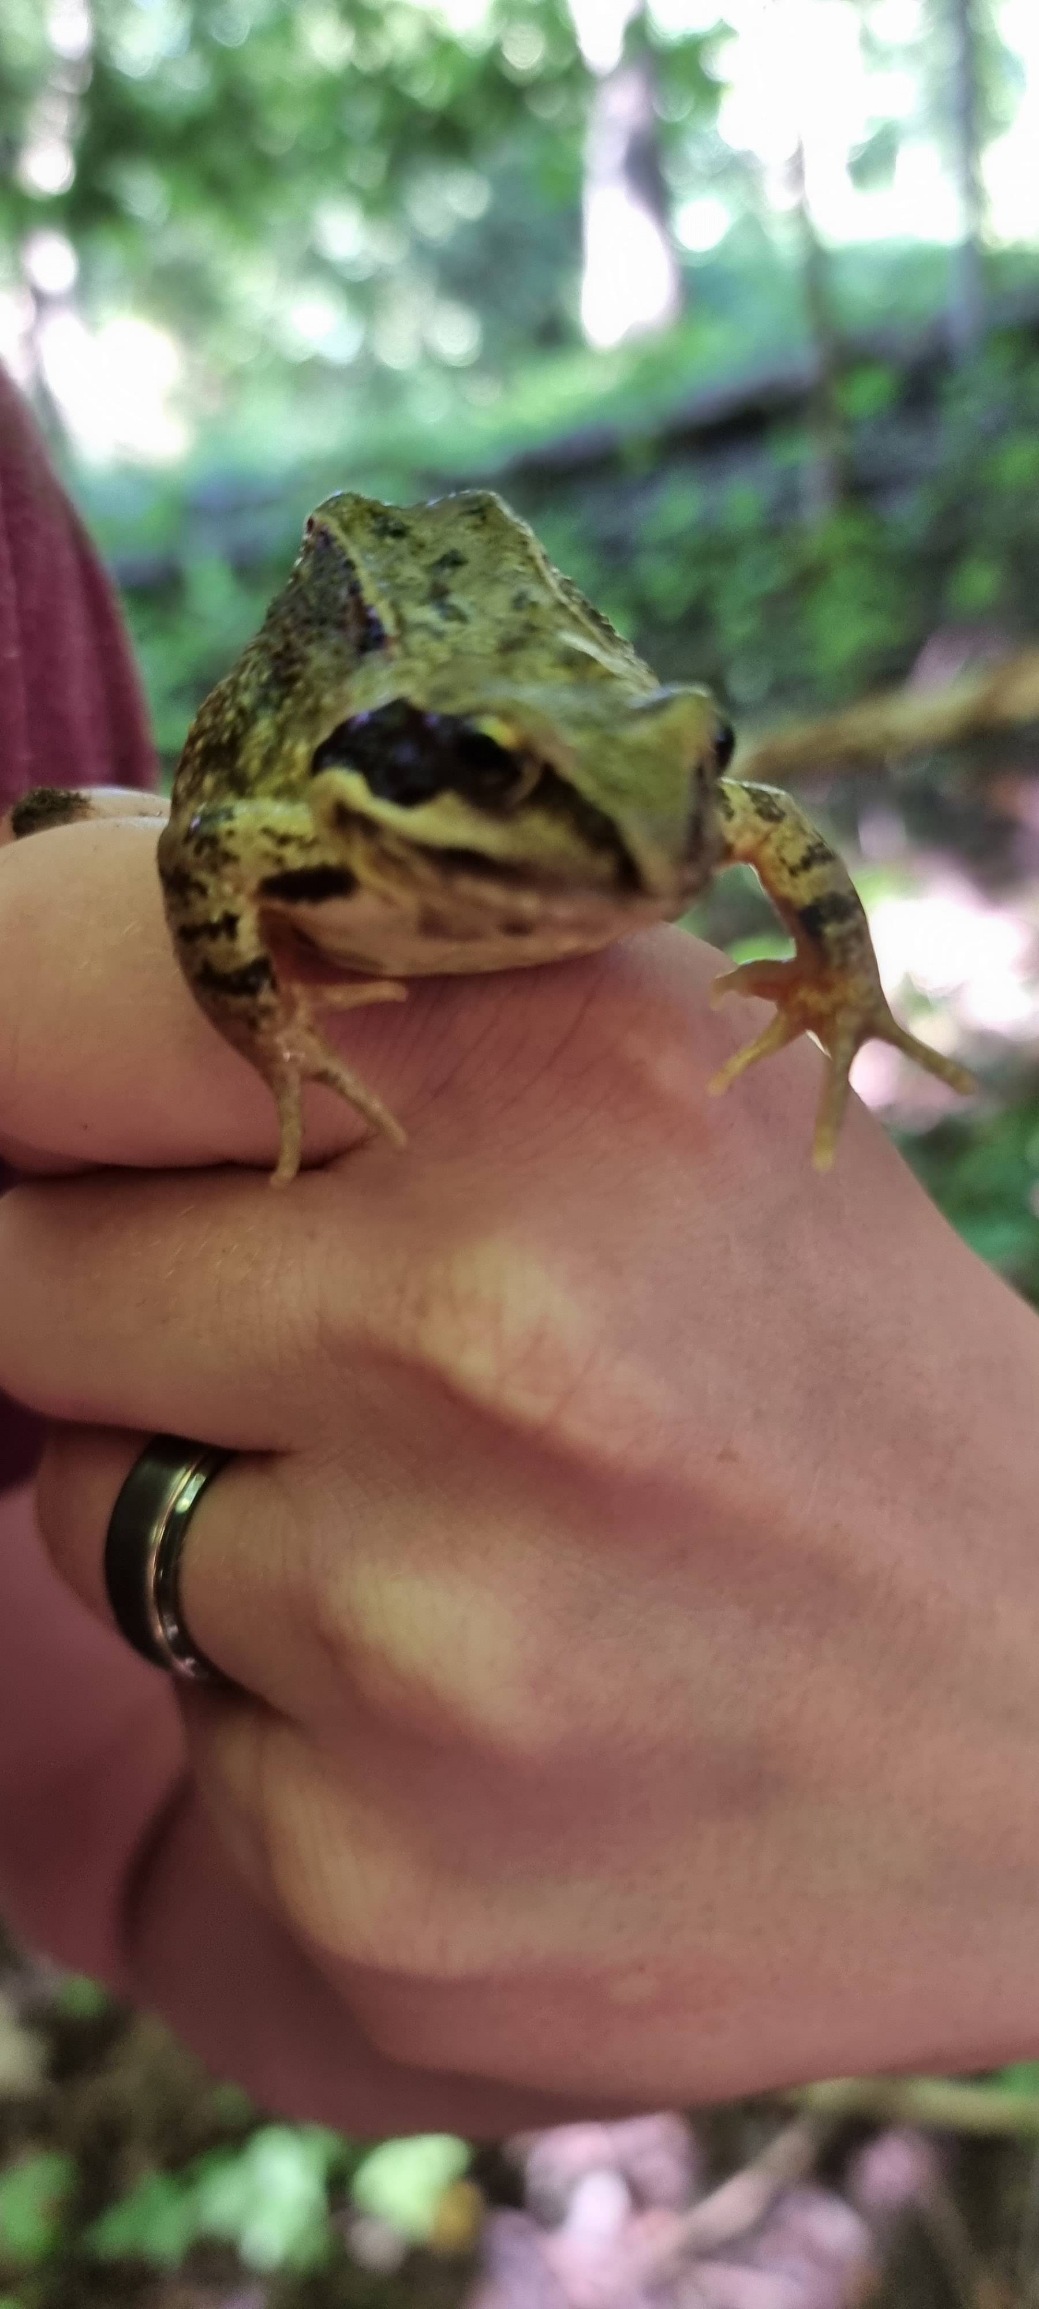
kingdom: Animalia
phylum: Chordata
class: Amphibia
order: Anura
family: Ranidae
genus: Rana
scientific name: Rana temporaria
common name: Butsnudet frø
